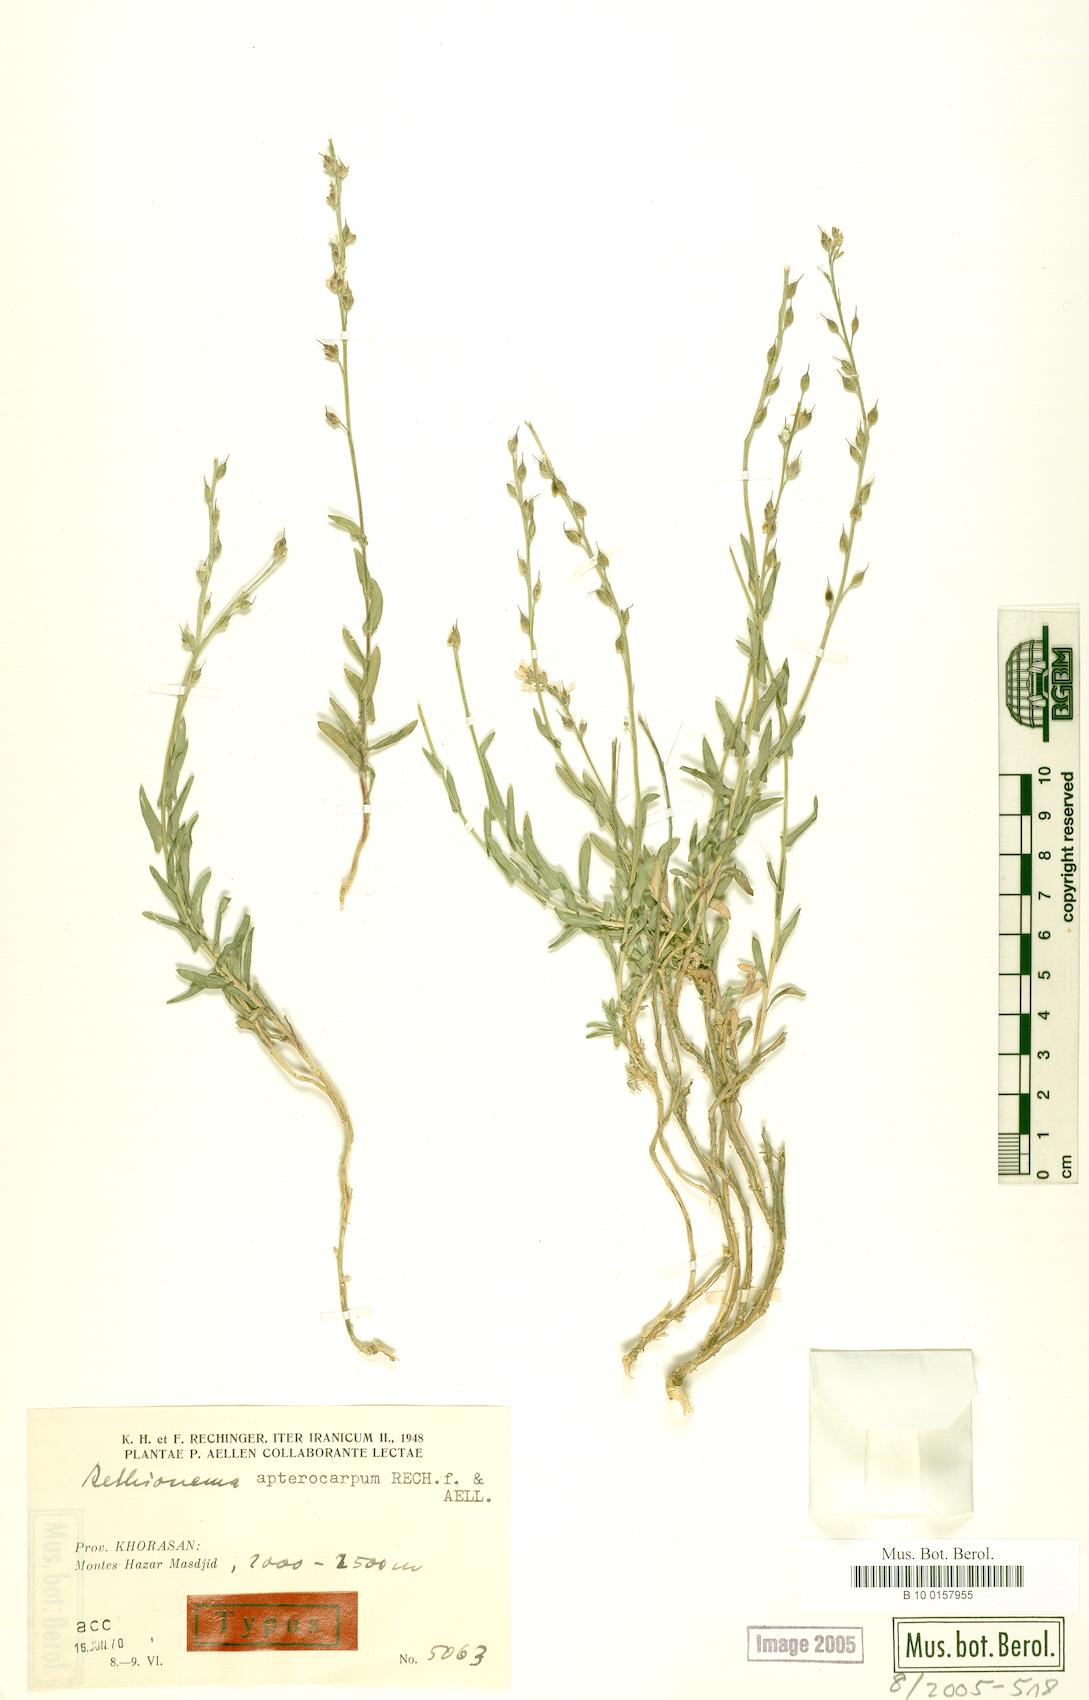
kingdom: Plantae
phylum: Tracheophyta
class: Magnoliopsida
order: Brassicales
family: Brassicaceae
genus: Noccaea
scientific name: Noccaea apterocarpa
